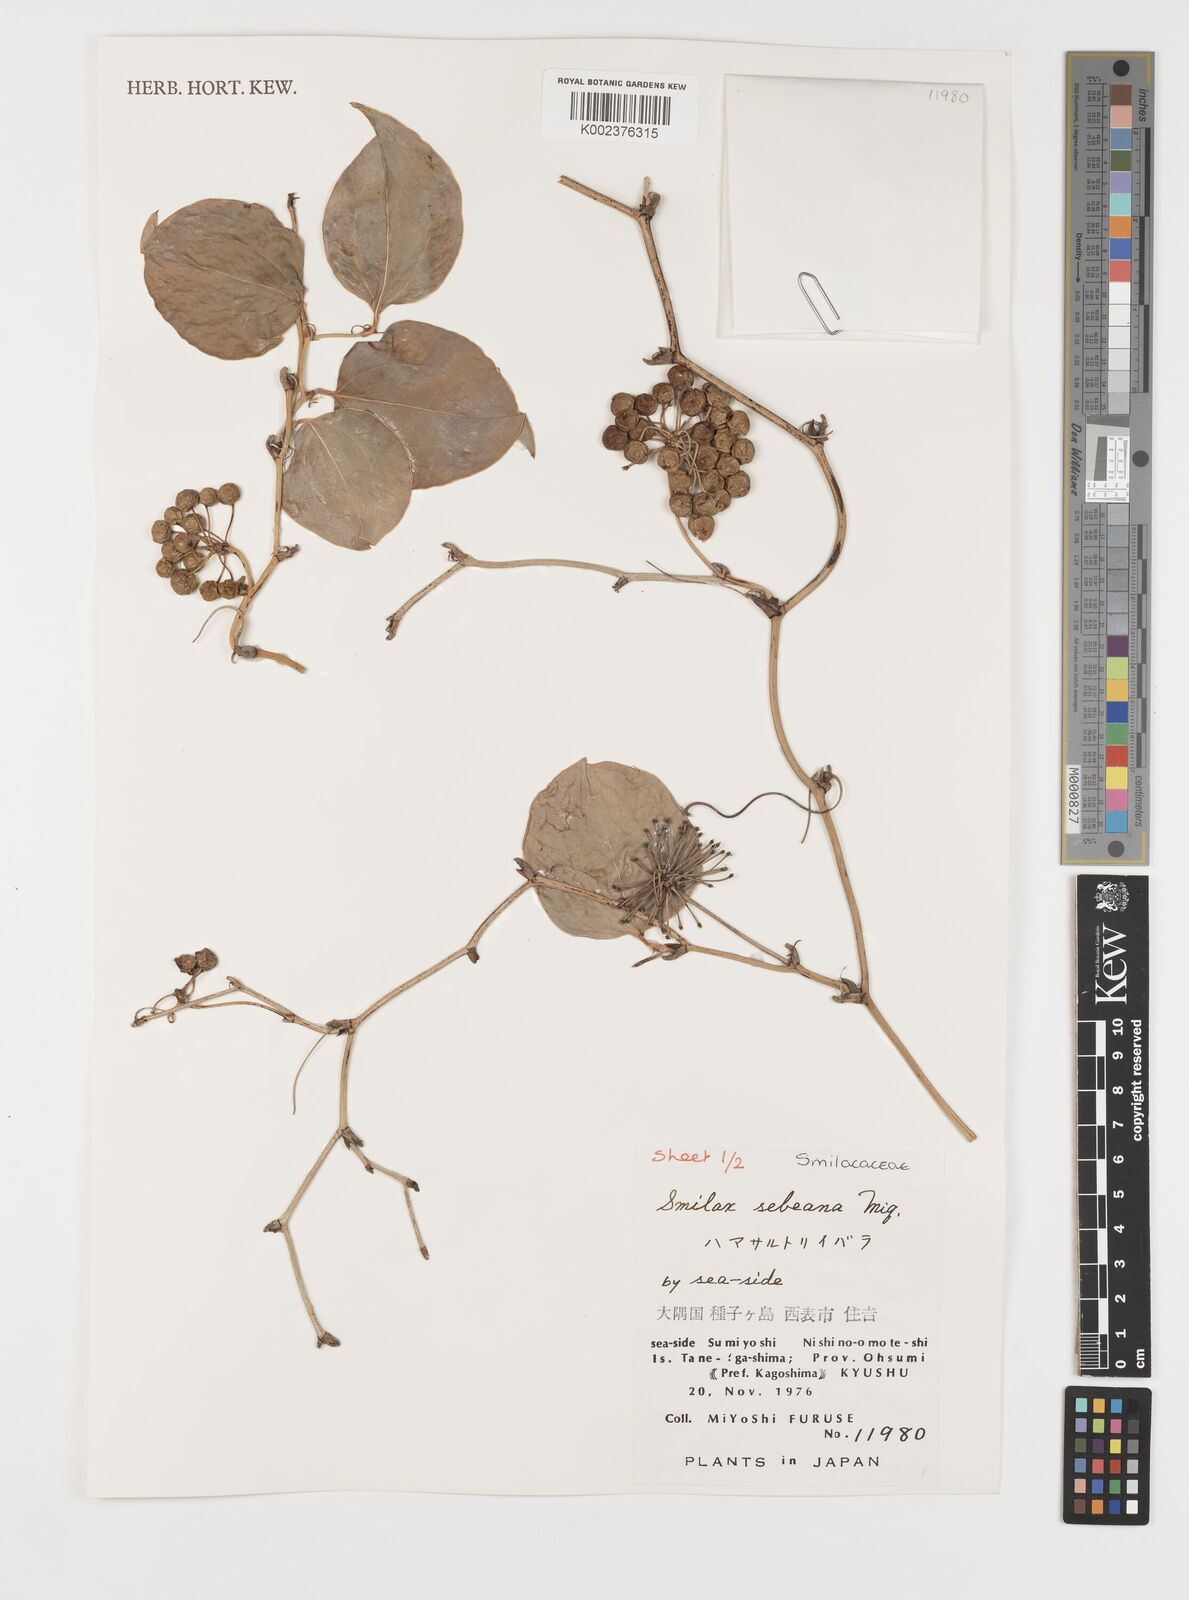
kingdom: Plantae
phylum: Tracheophyta
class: Liliopsida
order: Liliales
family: Smilacaceae
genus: Smilax
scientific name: Smilax sebeana
